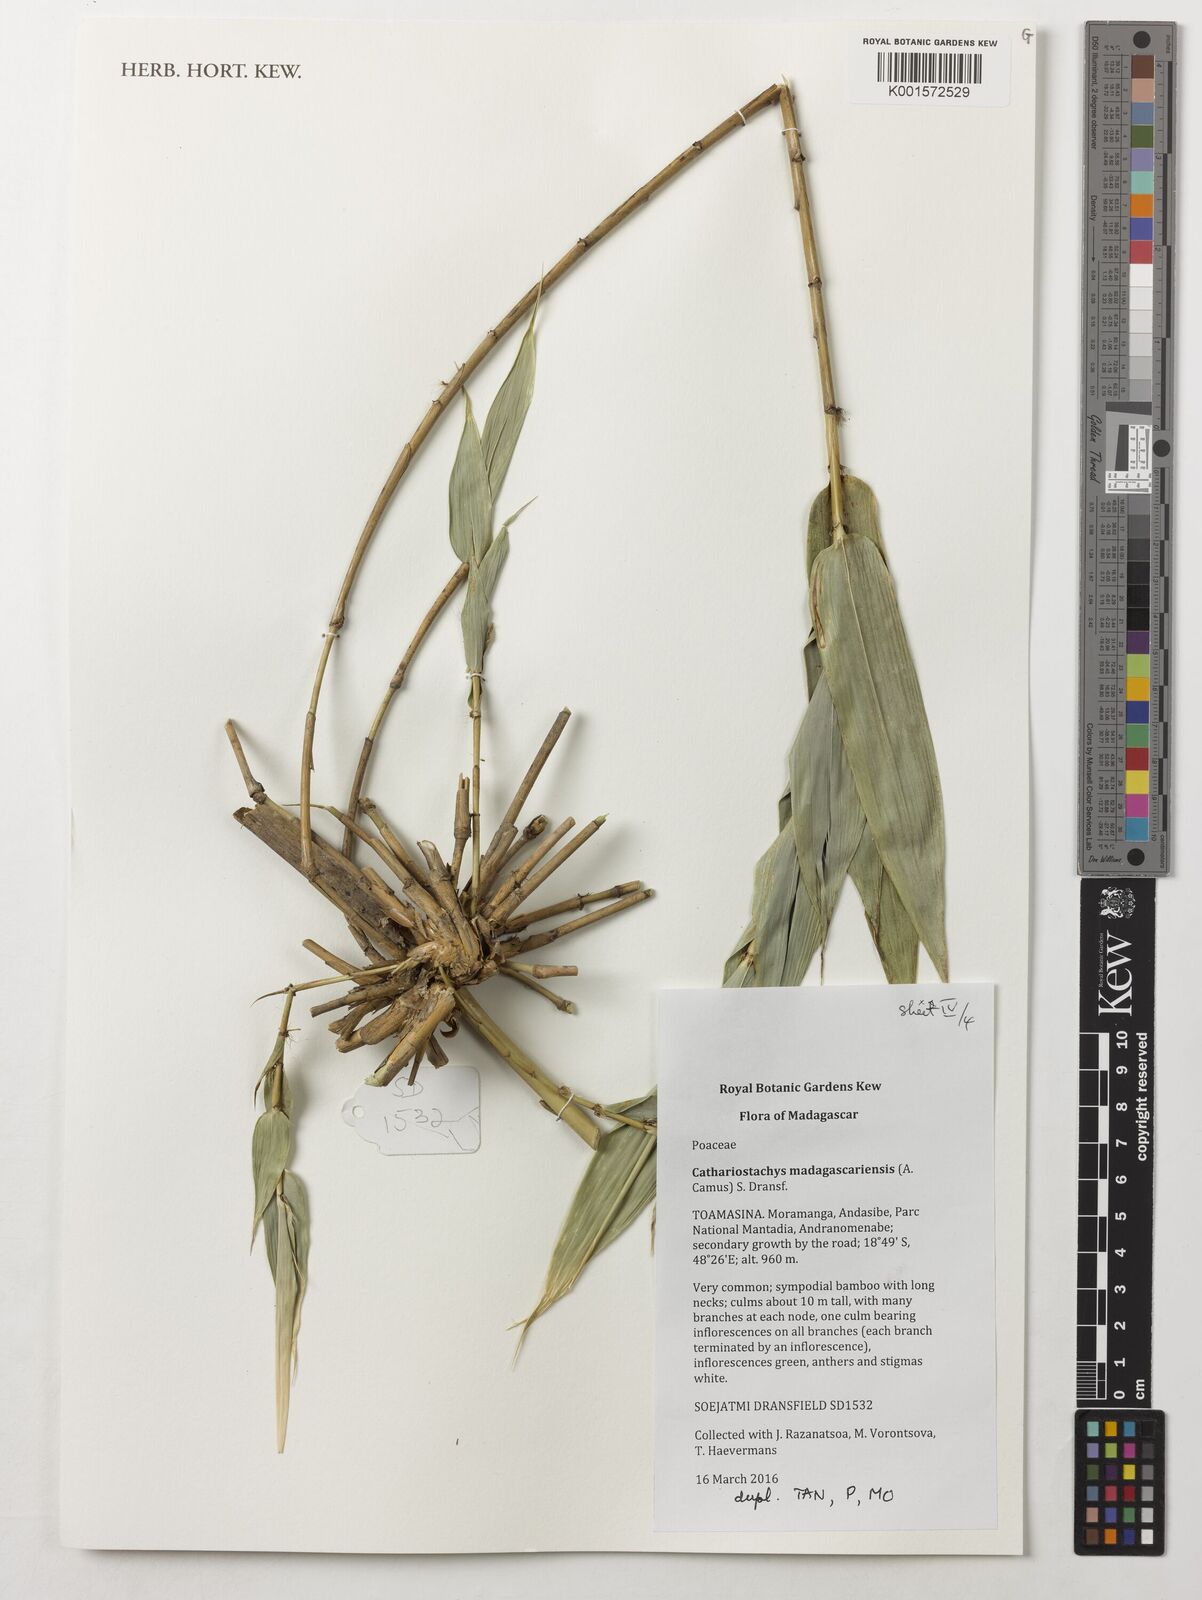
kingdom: Plantae
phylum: Tracheophyta
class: Liliopsida
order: Poales
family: Poaceae
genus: Cathariostachys
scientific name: Cathariostachys madagascariensis
